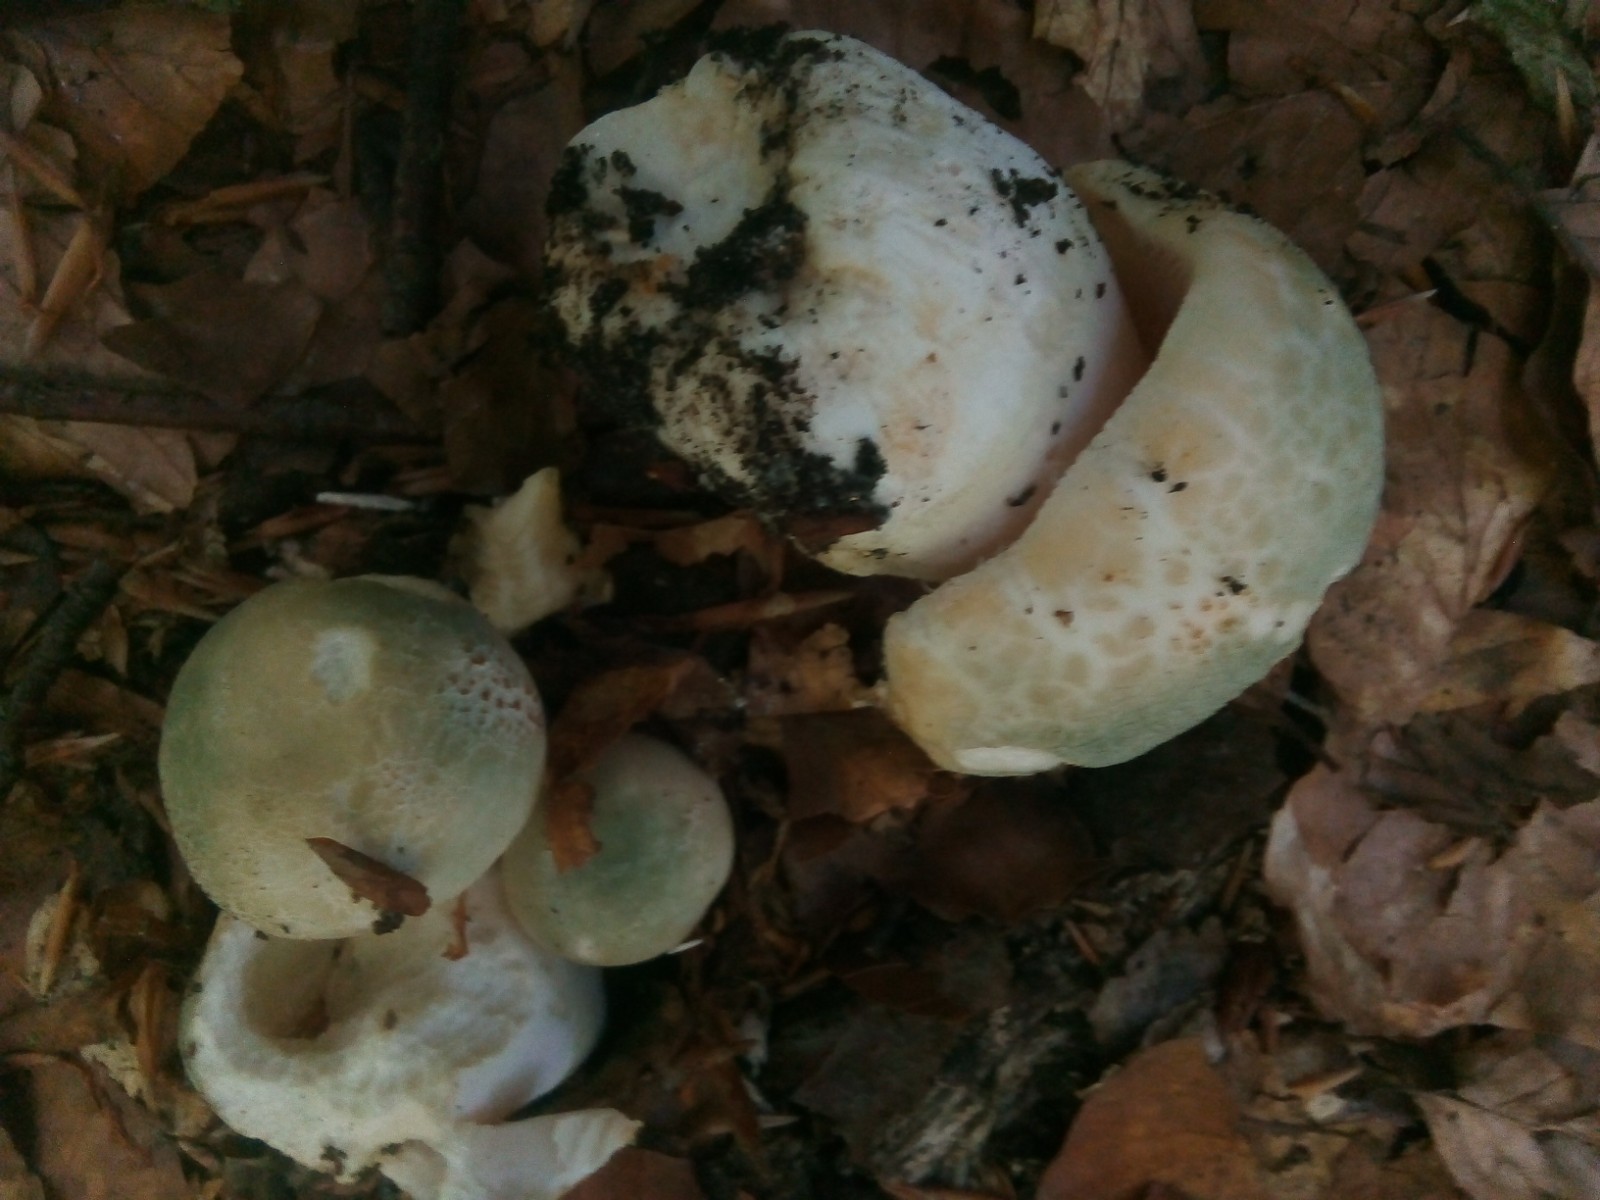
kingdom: Fungi
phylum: Basidiomycota
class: Agaricomycetes
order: Russulales
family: Russulaceae
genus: Russula
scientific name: Russula virescens
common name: spanskgrøn skørhat
